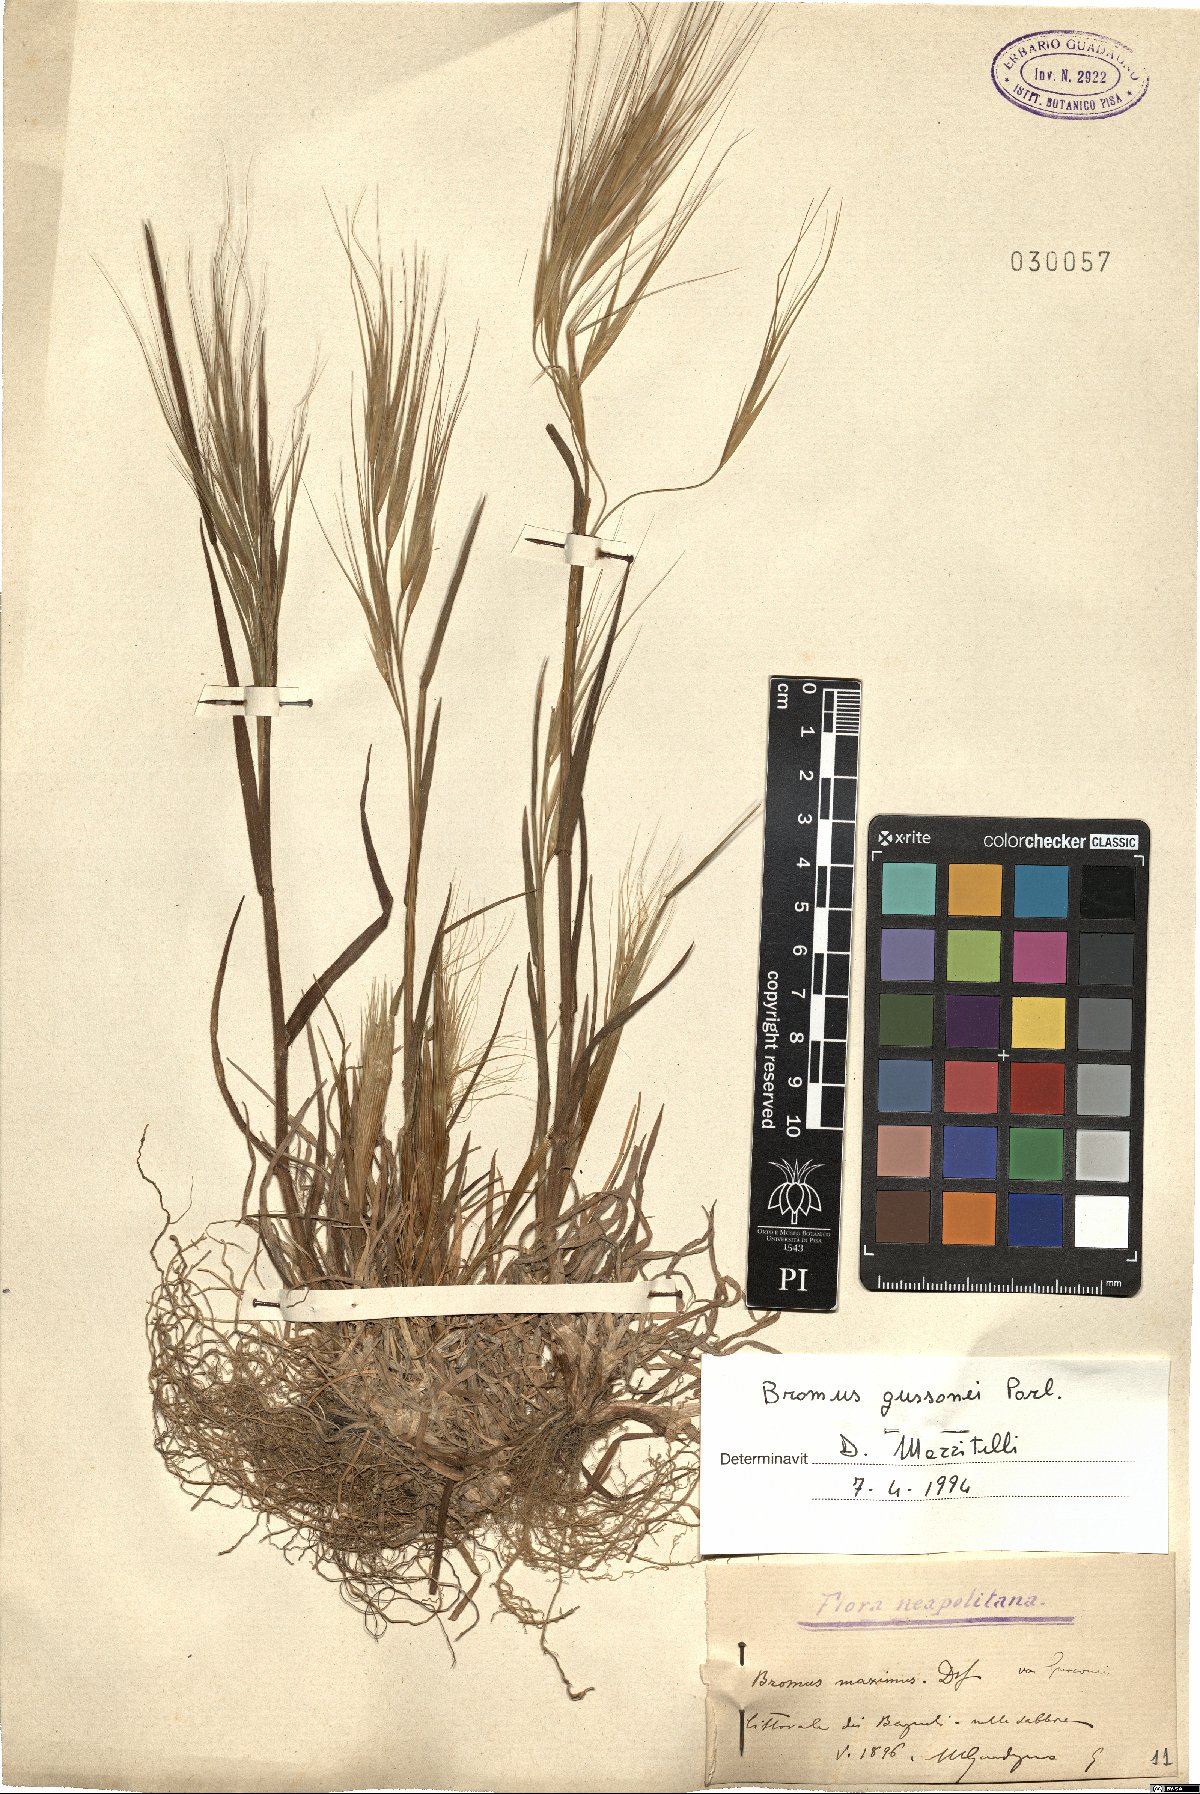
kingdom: Plantae
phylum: Tracheophyta
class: Liliopsida
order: Poales
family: Poaceae
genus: Bromus
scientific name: Bromus diandrus
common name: Ripgut brome
